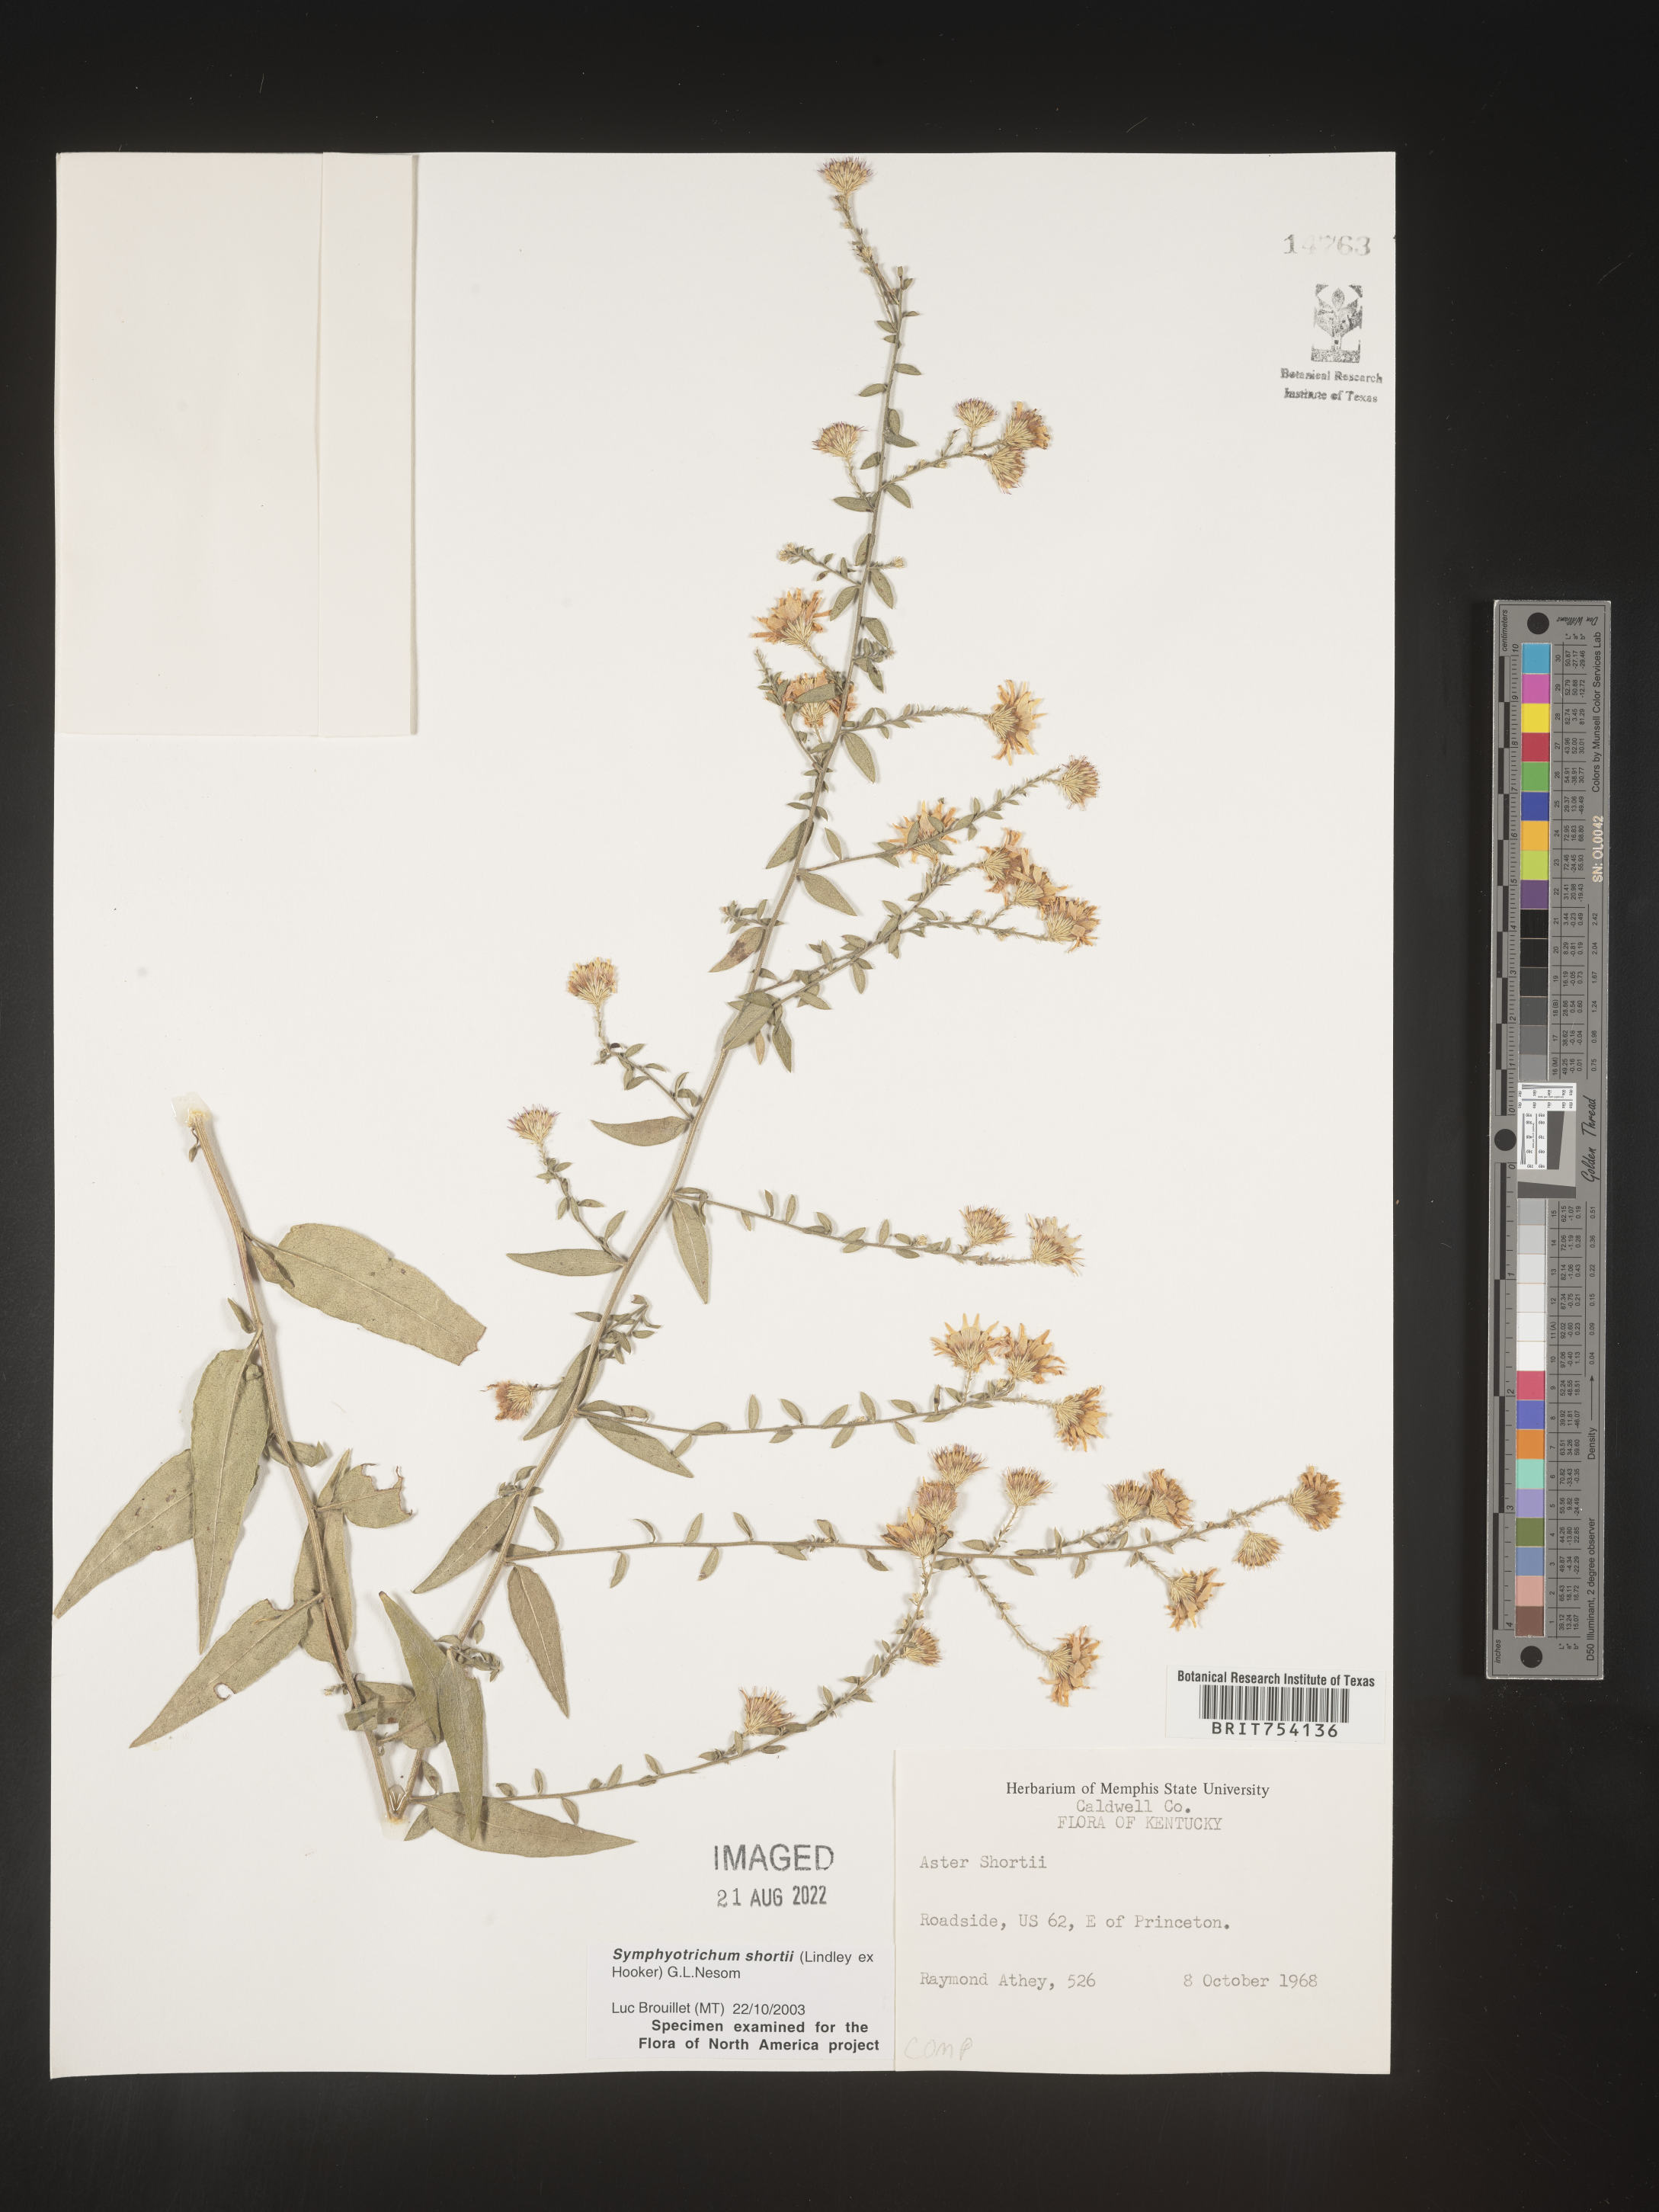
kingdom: Plantae
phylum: Tracheophyta
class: Magnoliopsida
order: Asterales
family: Asteraceae
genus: Symphyotrichum
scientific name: Symphyotrichum shortii
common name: Short's aster
